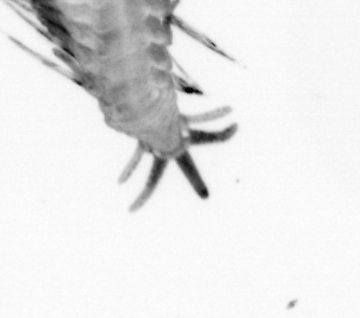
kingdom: Animalia
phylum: Annelida
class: Polychaeta
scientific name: Polychaeta
